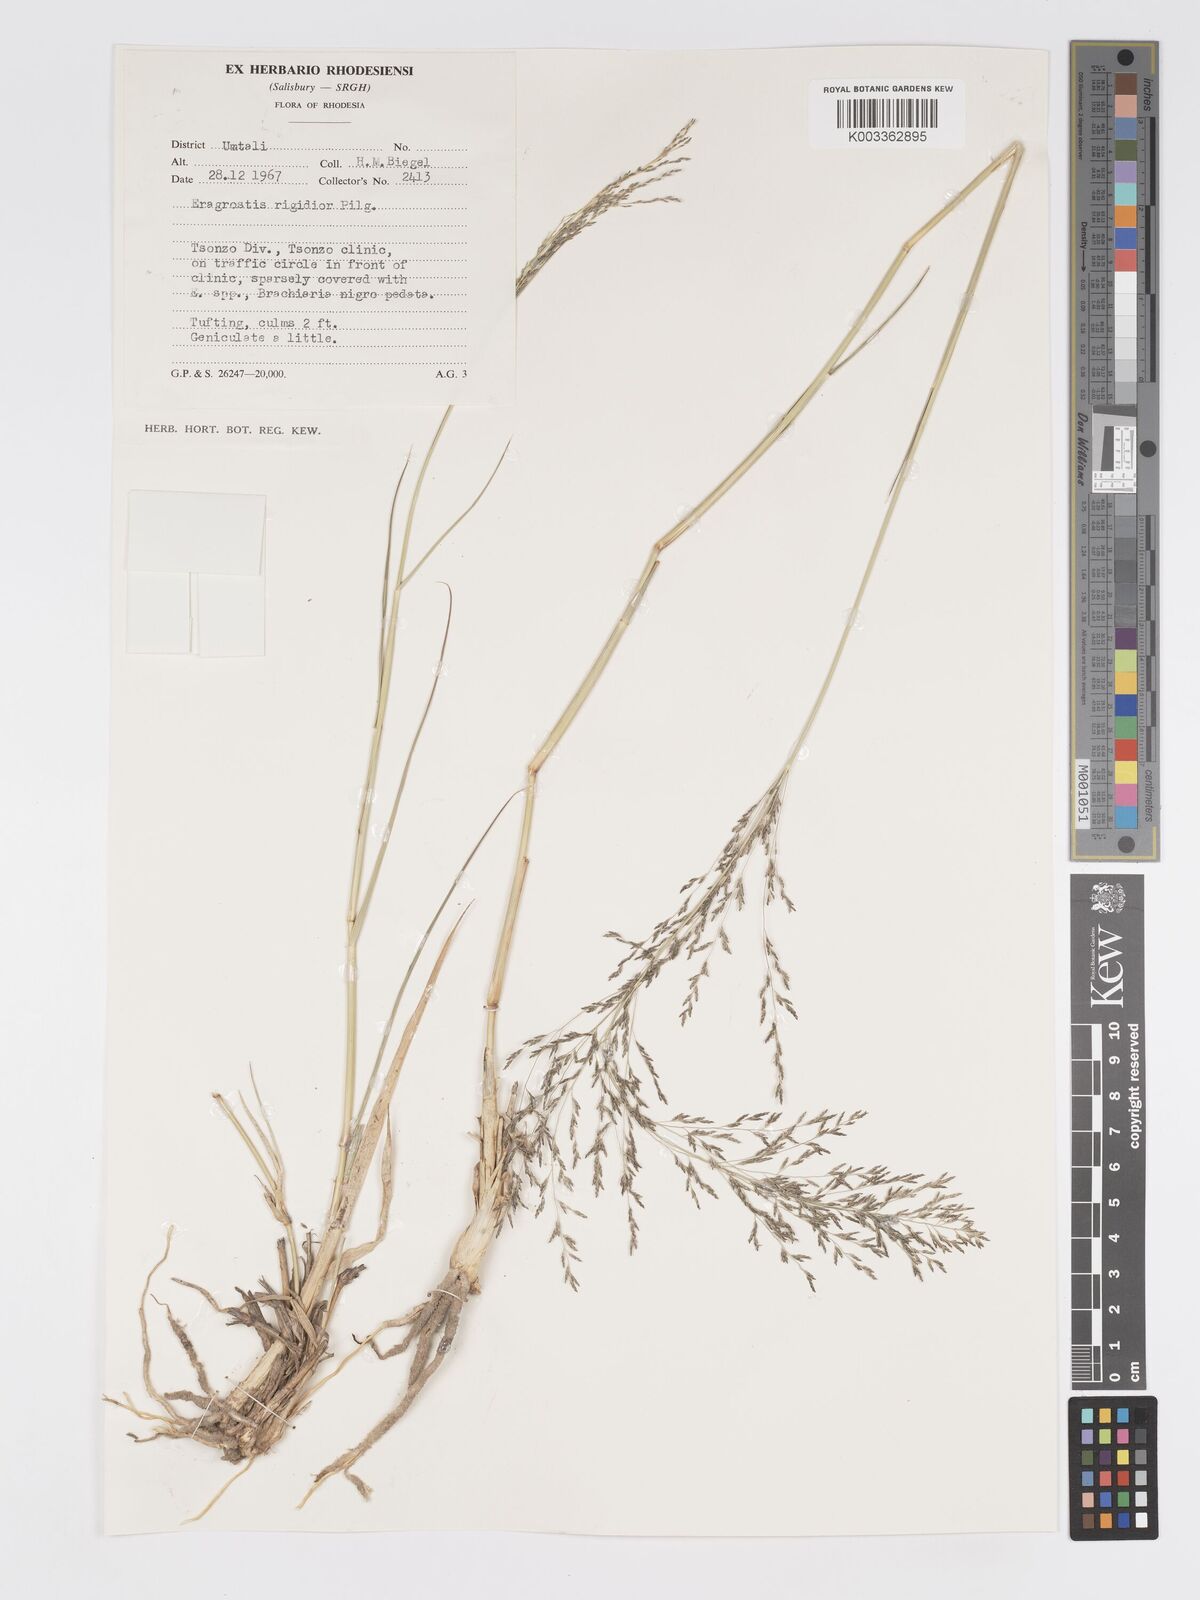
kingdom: Plantae
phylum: Tracheophyta
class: Liliopsida
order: Poales
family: Poaceae
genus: Eragrostis
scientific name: Eragrostis cylindriflora
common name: Cylinderflower lovegrass
